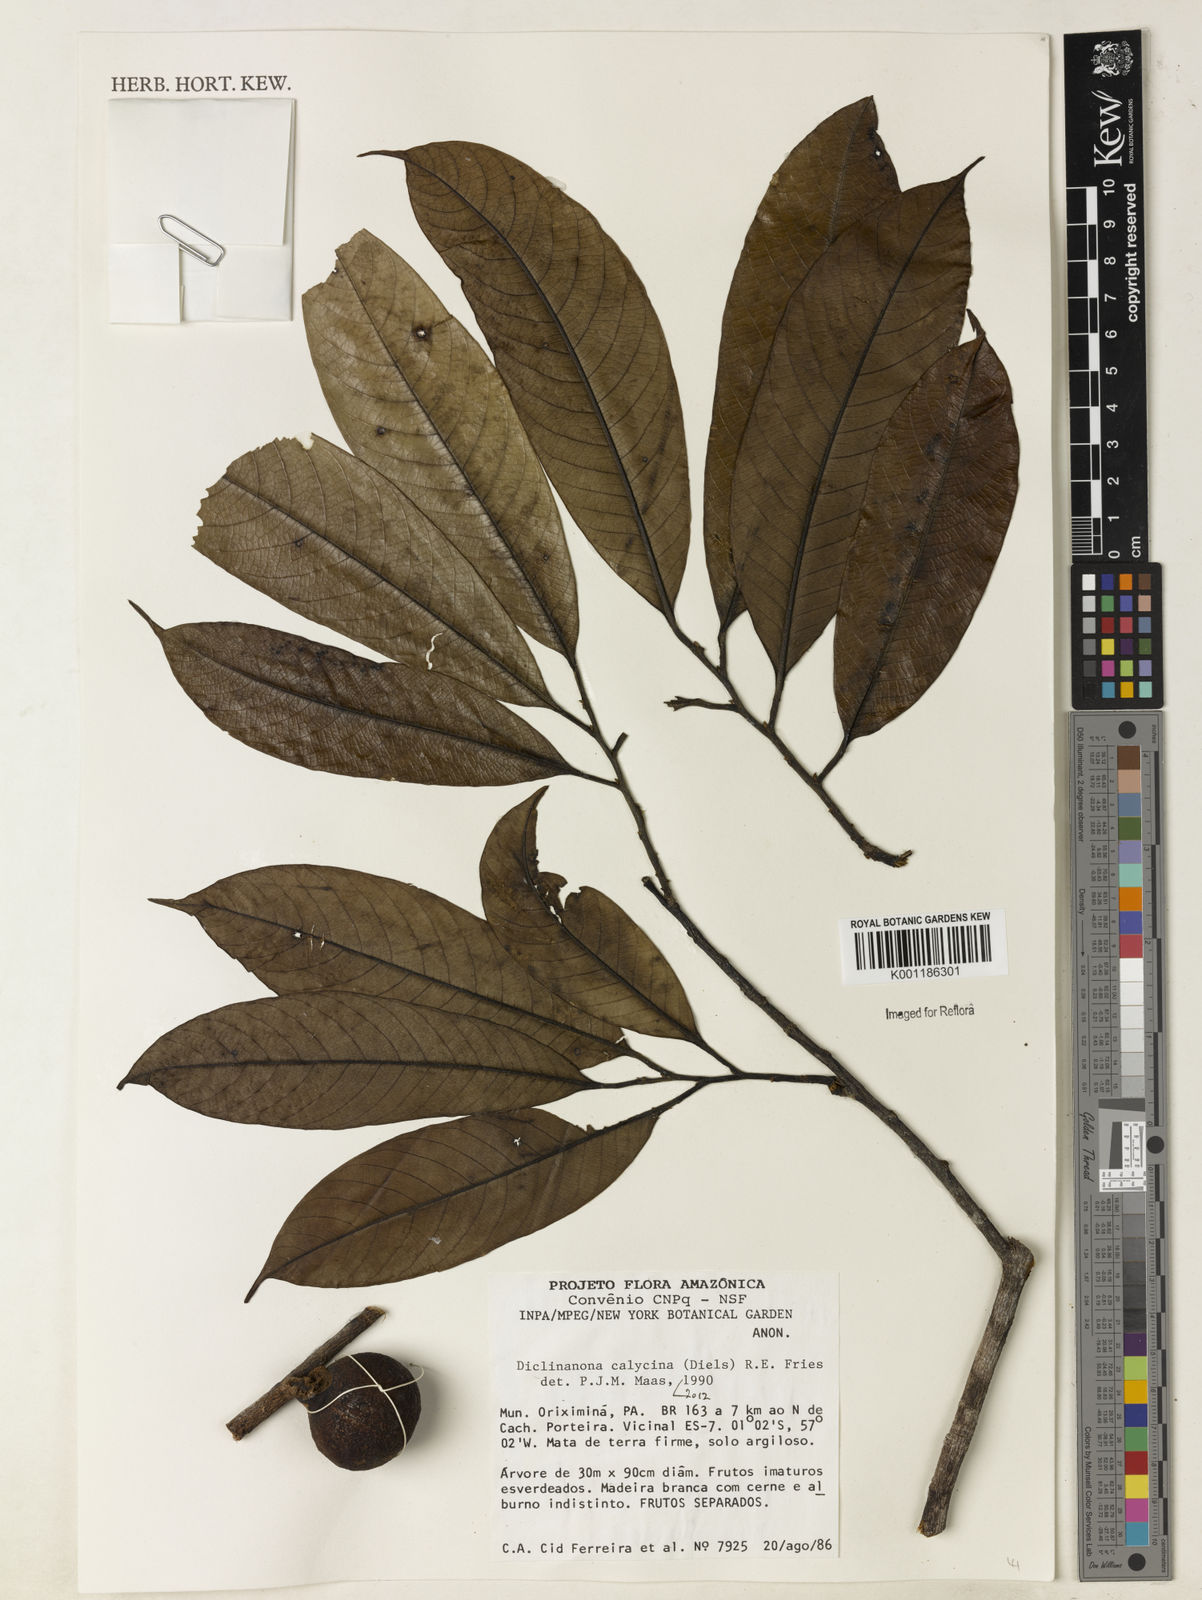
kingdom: Plantae
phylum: Tracheophyta
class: Magnoliopsida
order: Magnoliales
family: Annonaceae
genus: Diclinanona
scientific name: Diclinanona calycina
